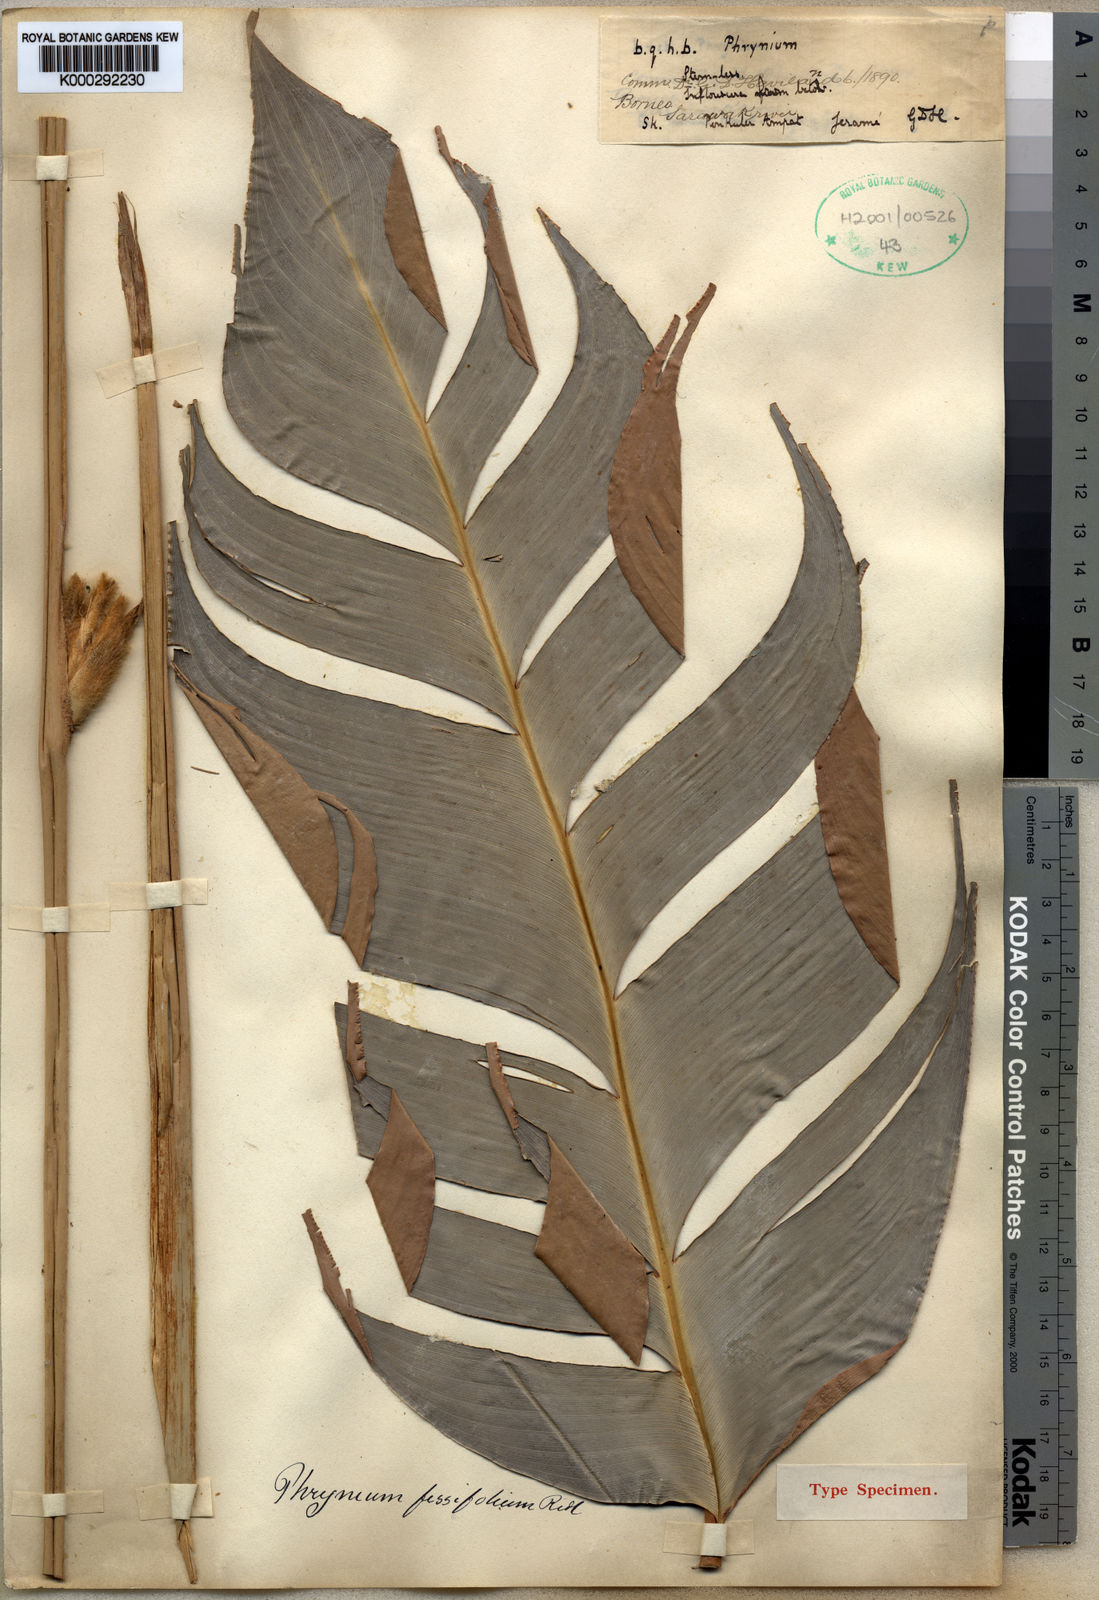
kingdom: Plantae
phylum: Tracheophyta
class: Liliopsida
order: Zingiberales
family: Marantaceae
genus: Phrynium
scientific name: Phrynium fissifolium
